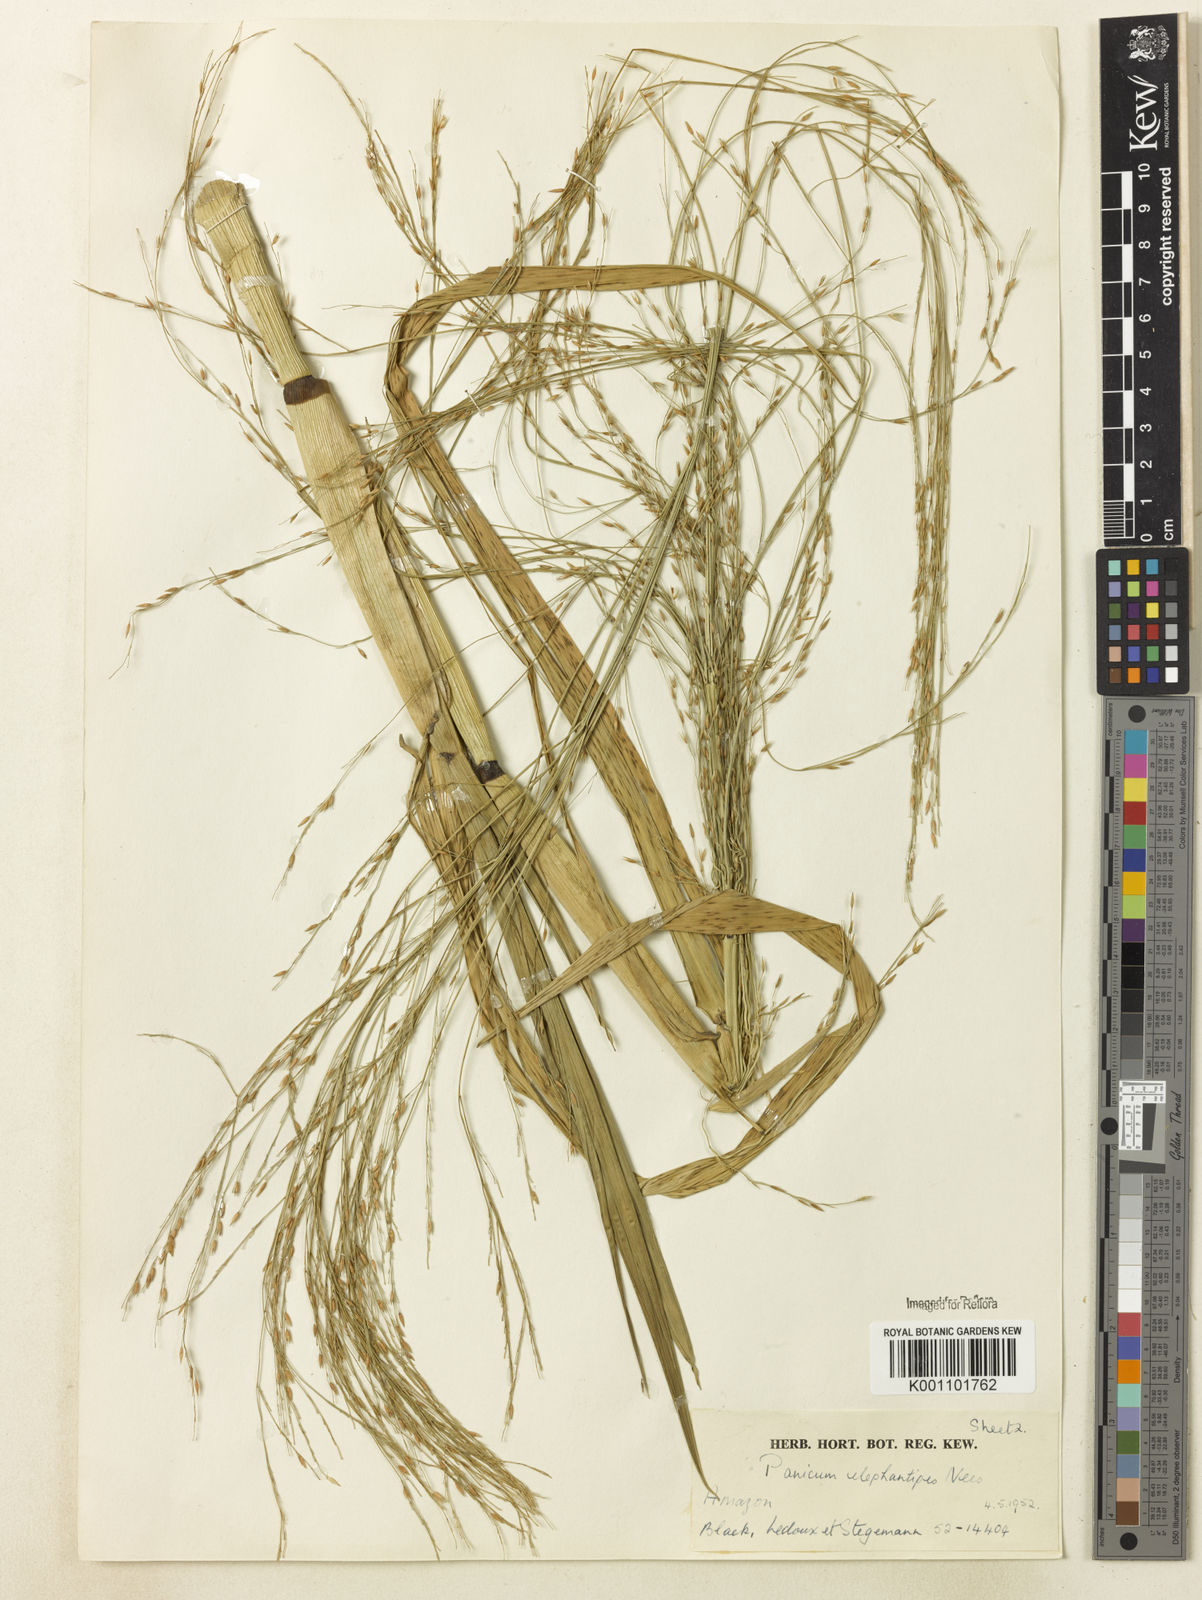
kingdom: Plantae
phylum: Tracheophyta
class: Liliopsida
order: Poales
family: Poaceae
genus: Louisiella
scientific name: Louisiella elephantipes
